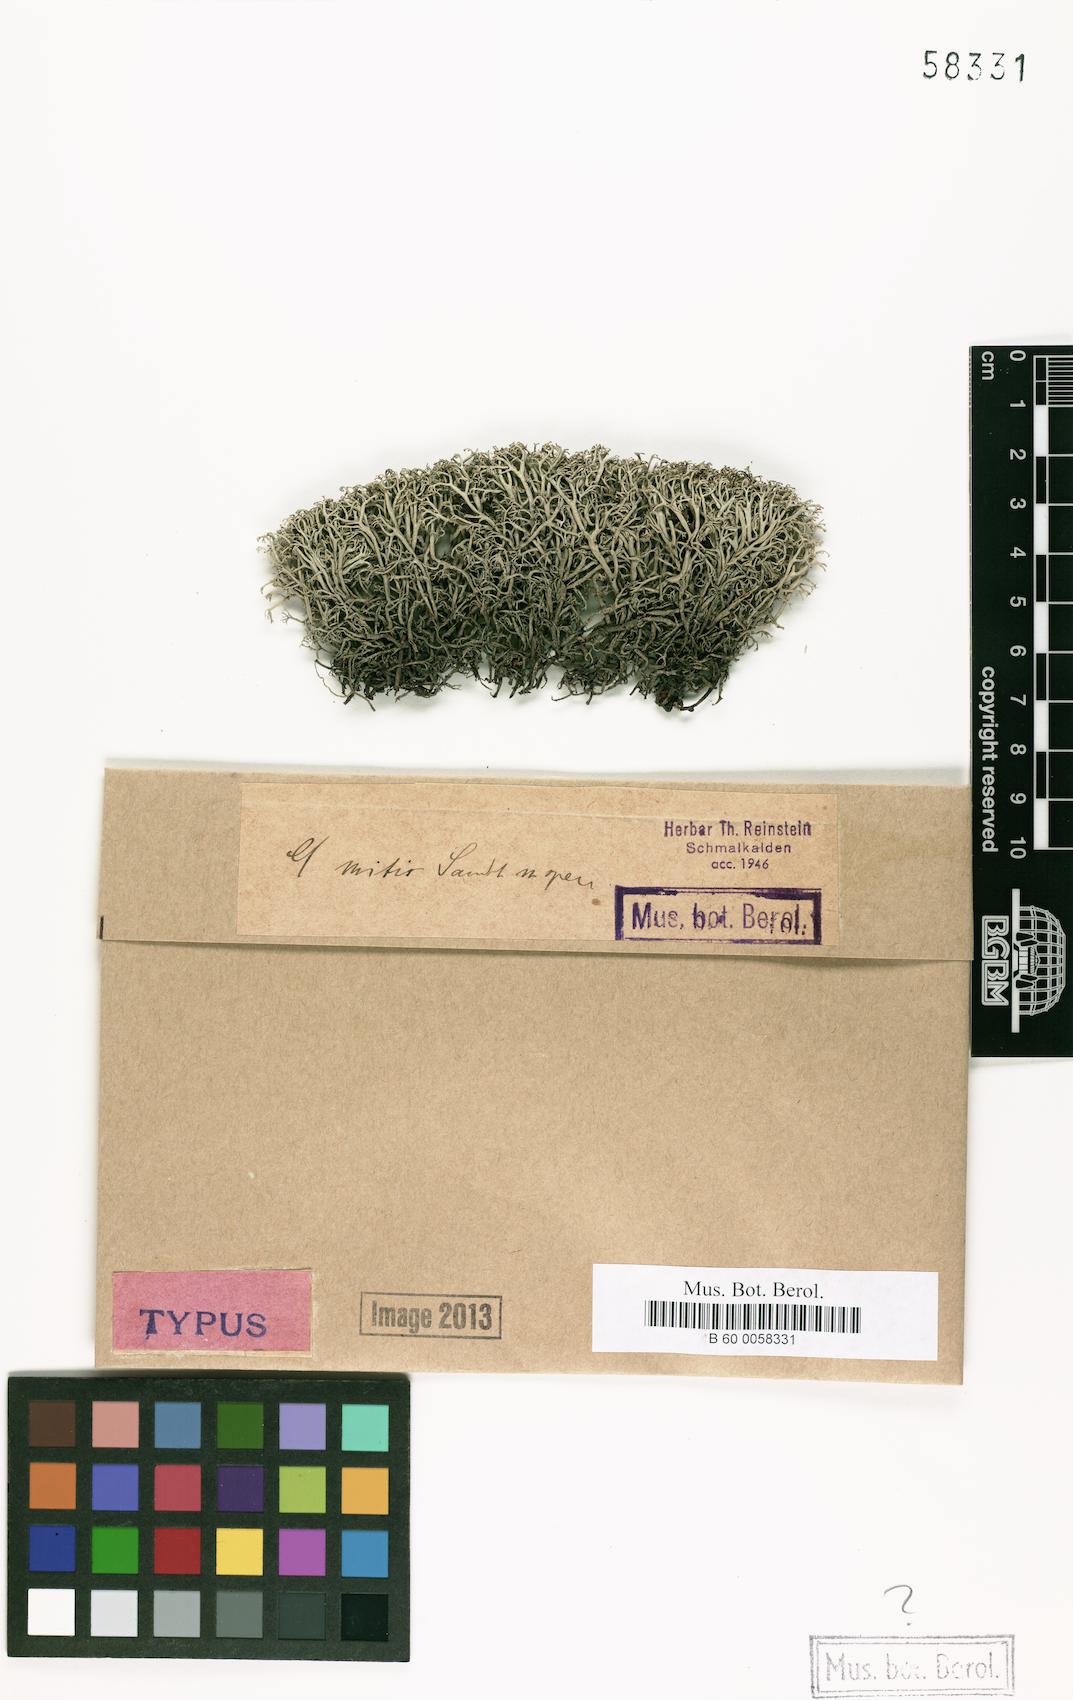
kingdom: Fungi
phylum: Ascomycota
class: Lecanoromycetes
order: Lecanorales
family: Cladoniaceae
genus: Cladonia
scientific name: Cladonia mitis
